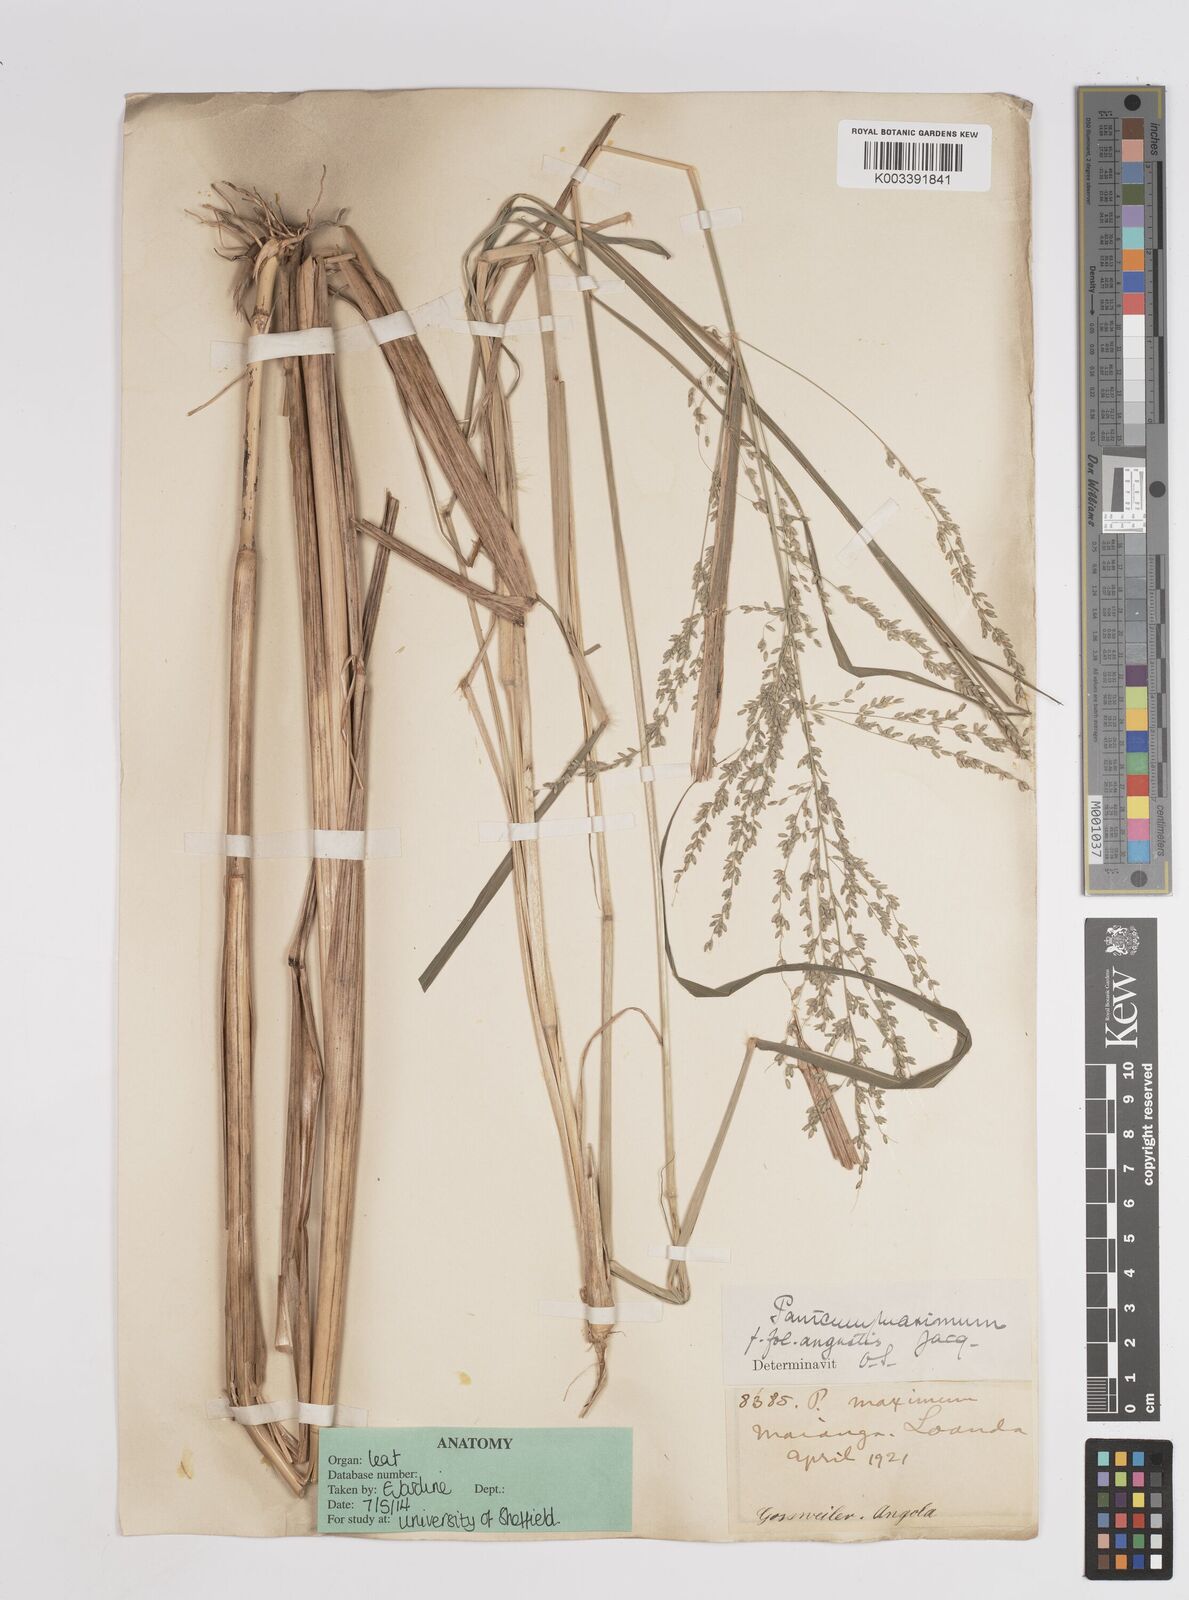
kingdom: Plantae
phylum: Tracheophyta
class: Liliopsida
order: Poales
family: Poaceae
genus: Megathyrsus
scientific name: Megathyrsus maximus
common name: Guineagrass
